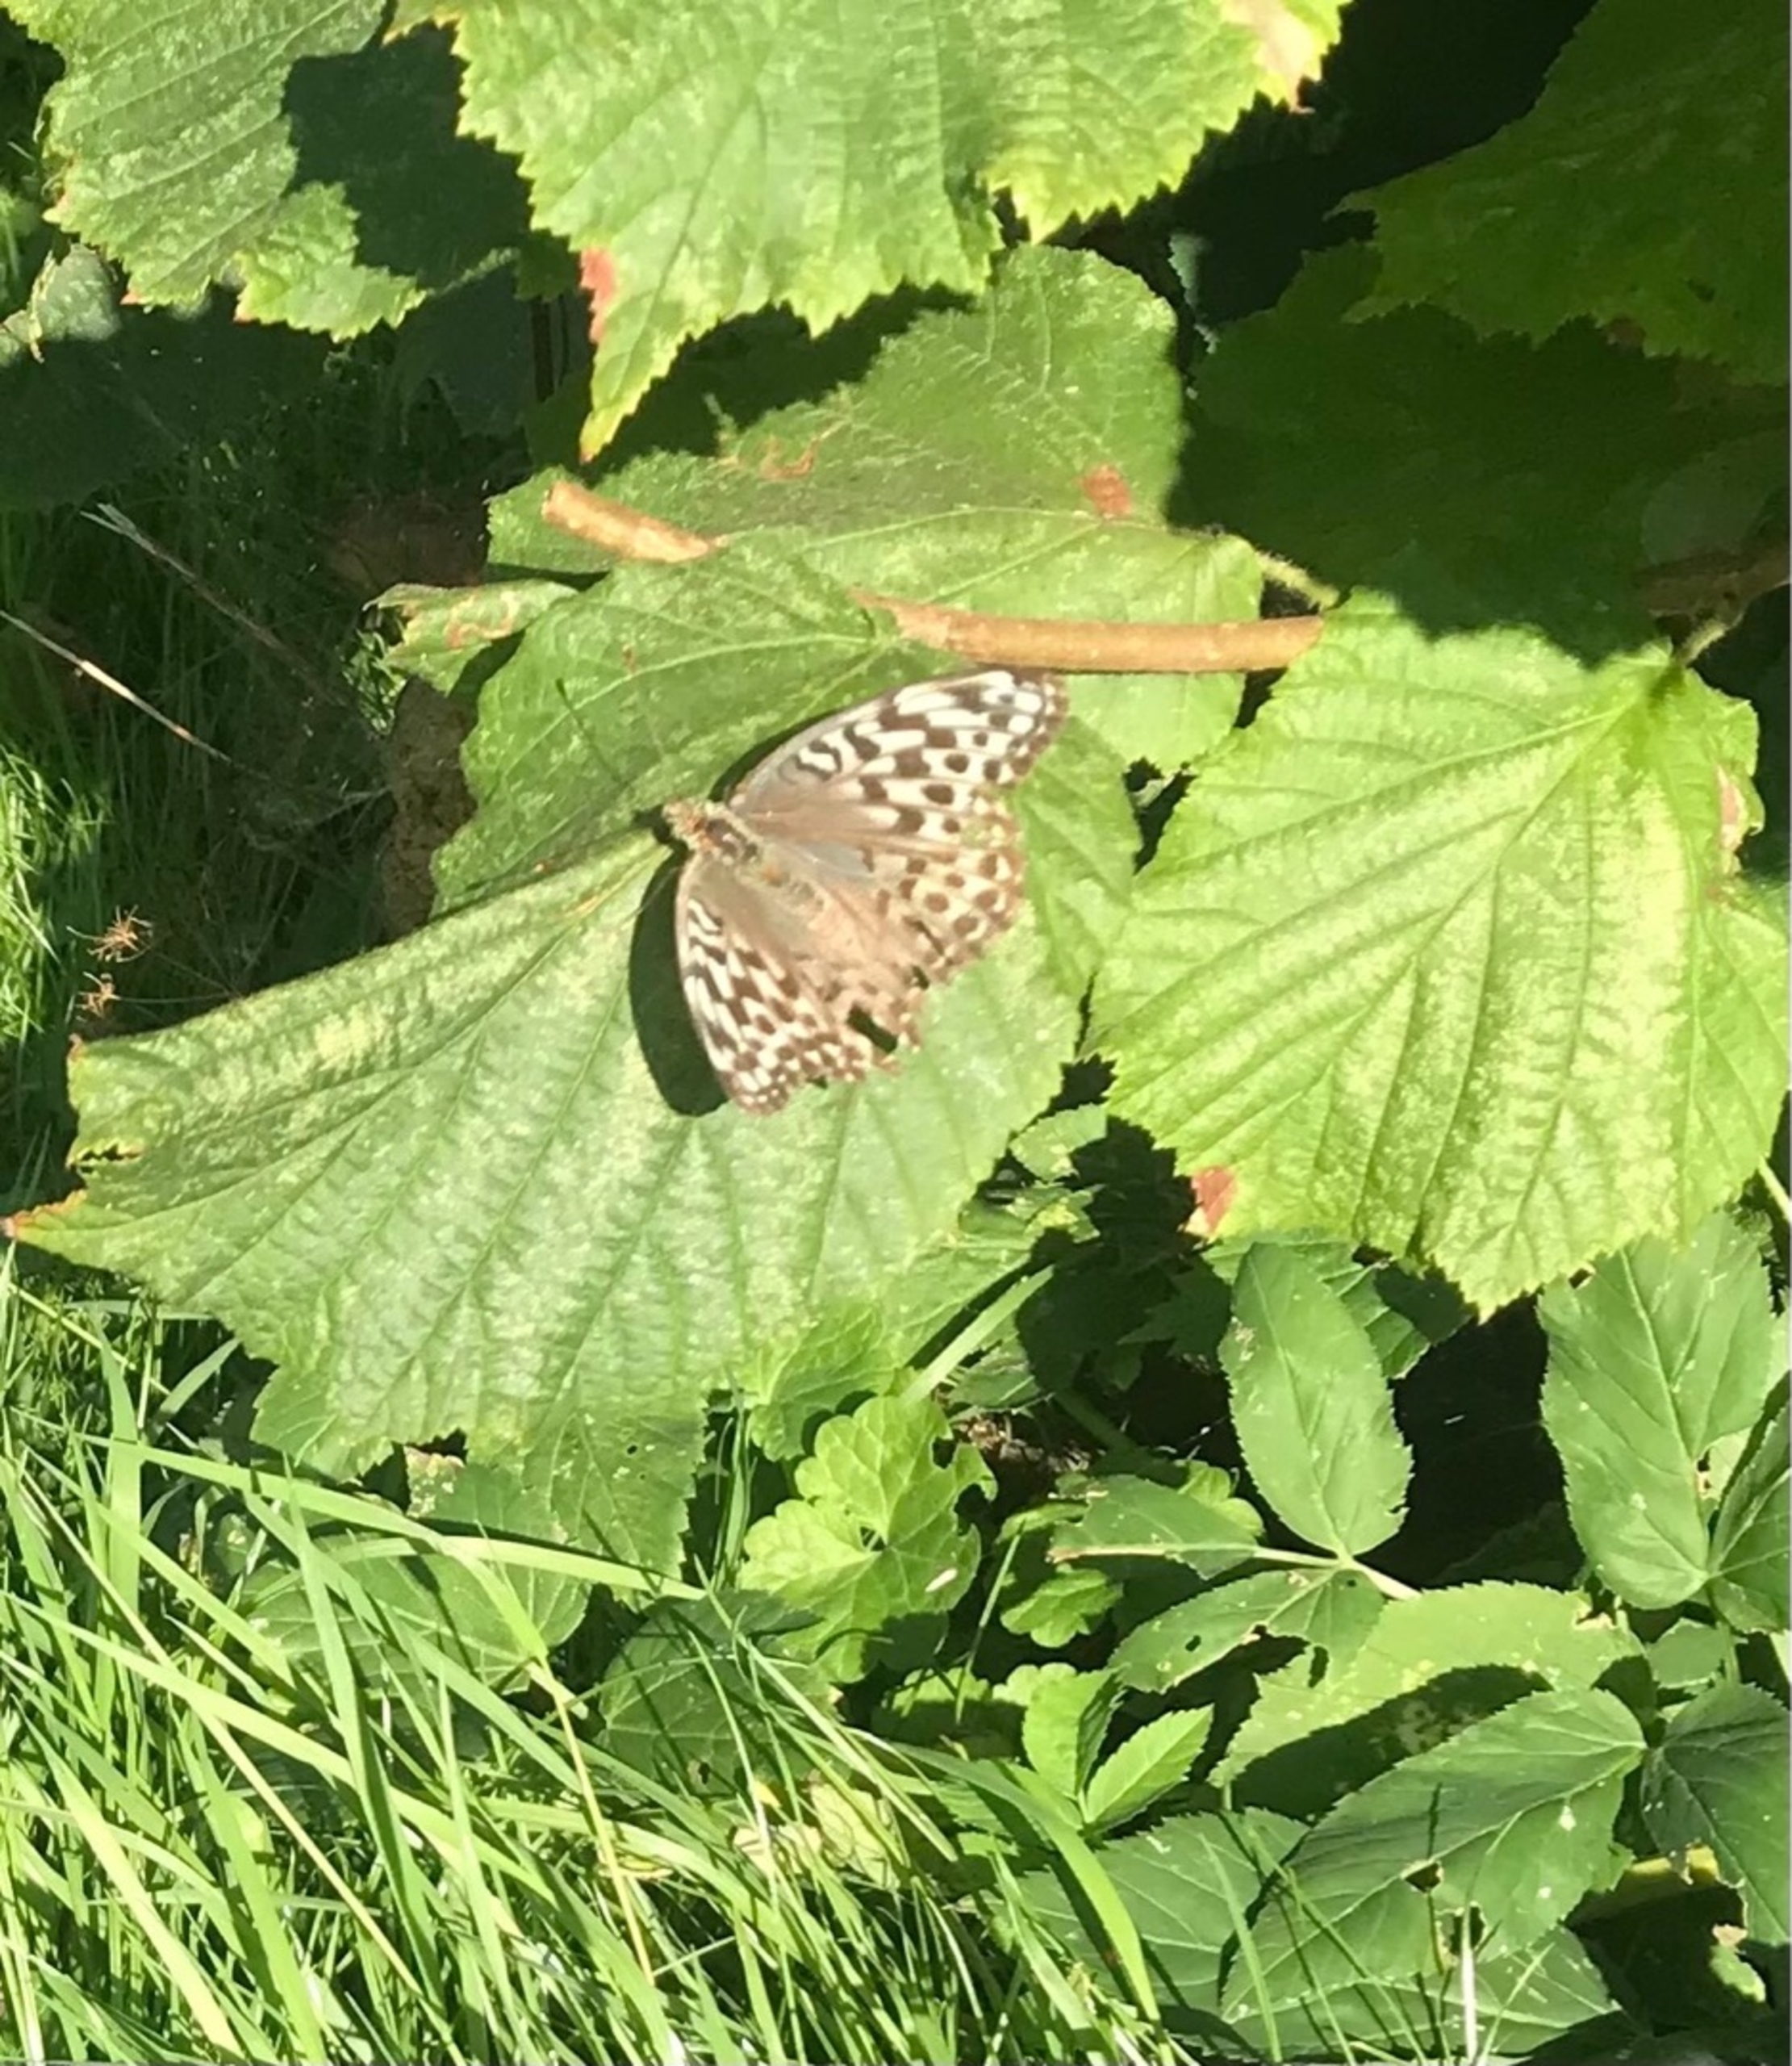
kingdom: Animalia
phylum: Arthropoda
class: Insecta
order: Lepidoptera
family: Nymphalidae
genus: Argynnis
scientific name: Argynnis paphia
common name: Kejserkåbe
